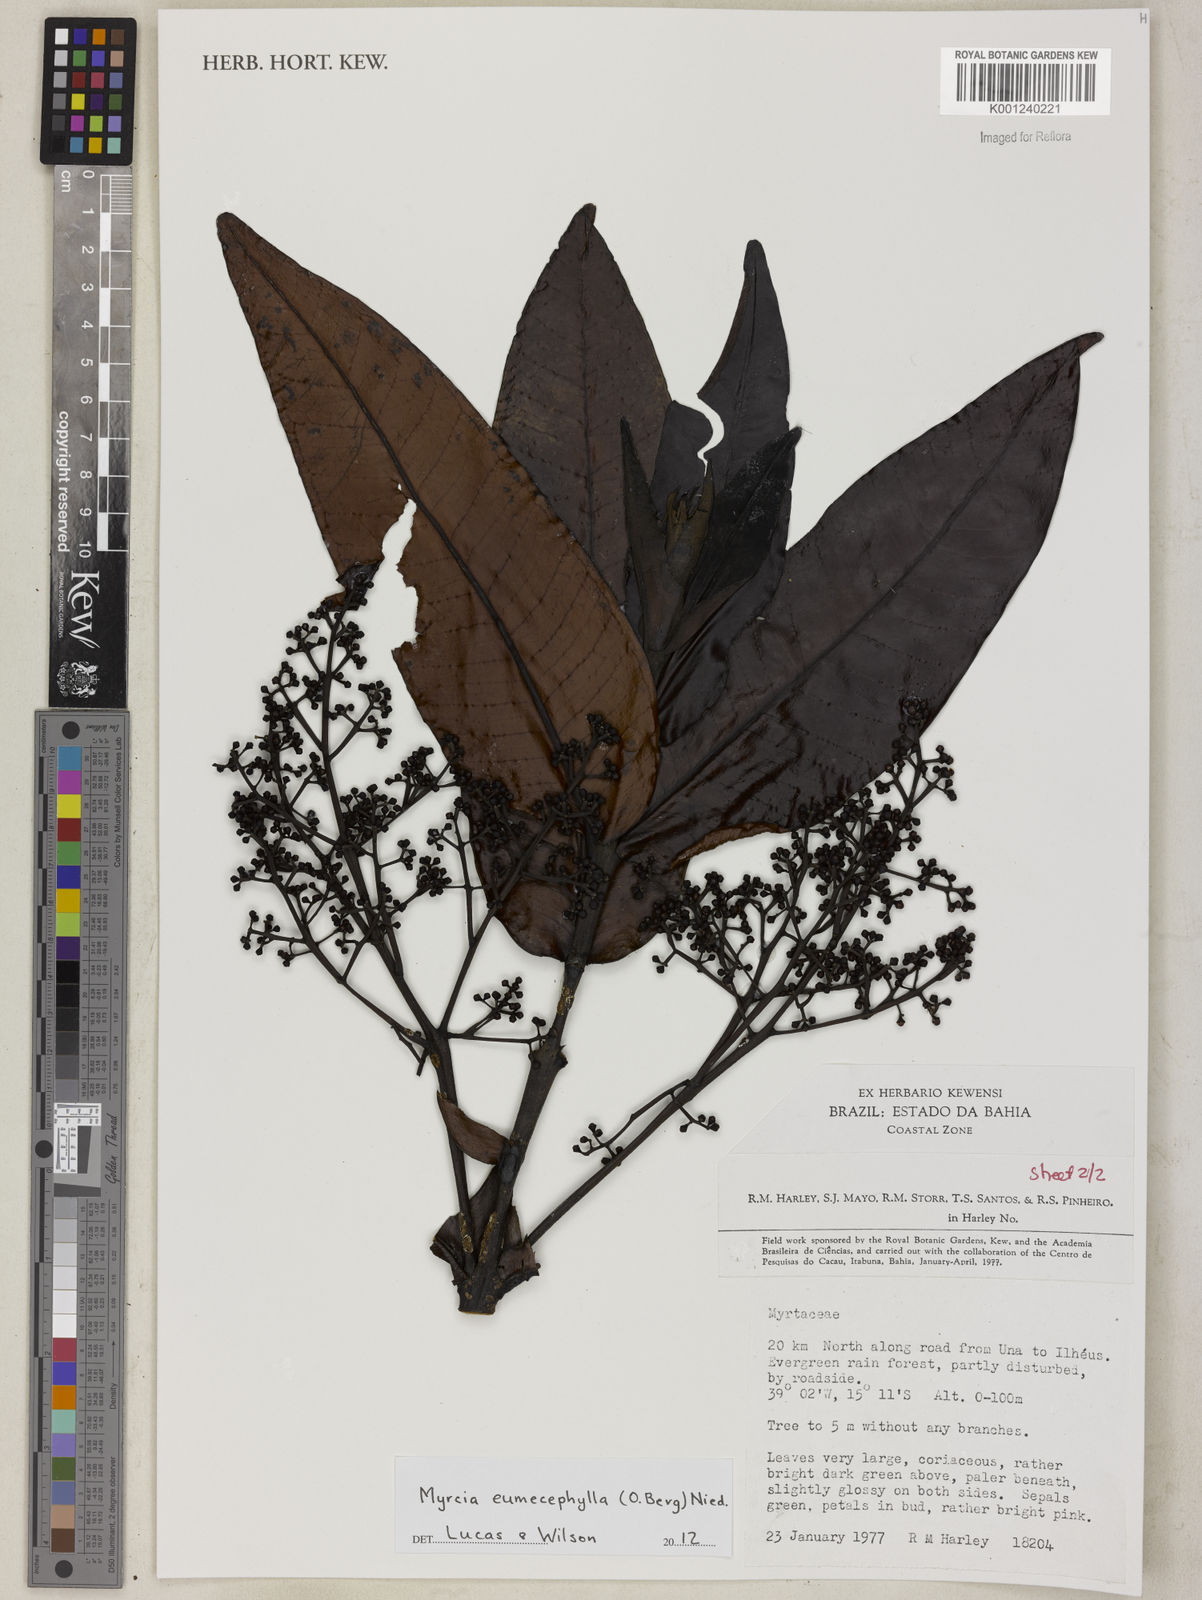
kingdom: Plantae
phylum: Tracheophyta
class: Magnoliopsida
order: Myrtales
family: Myrtaceae
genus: Myrcia
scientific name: Myrcia eumecephylla
